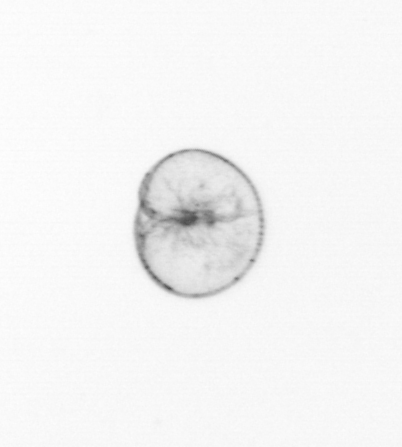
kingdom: Chromista
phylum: Myzozoa
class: Dinophyceae
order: Noctilucales
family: Noctilucaceae
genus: Noctiluca
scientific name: Noctiluca scintillans
